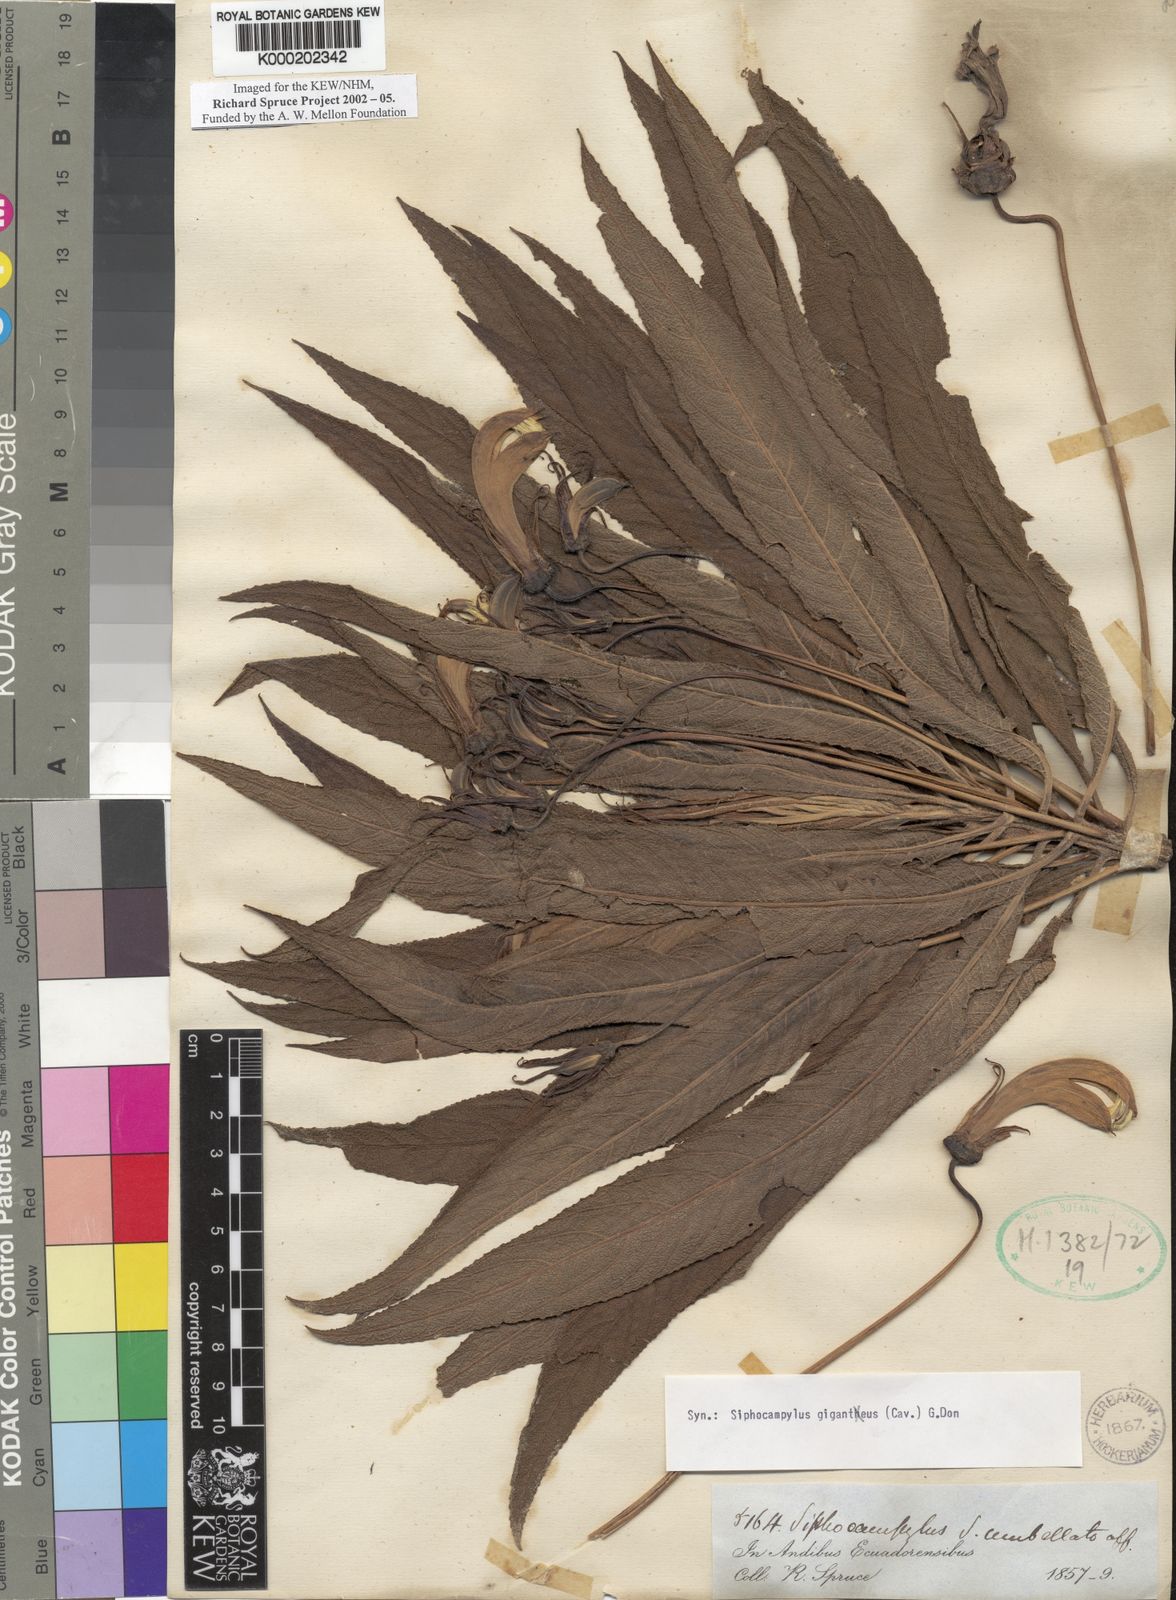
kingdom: Plantae
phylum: Tracheophyta
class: Magnoliopsida
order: Asterales
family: Campanulaceae
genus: Siphocampylus
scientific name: Siphocampylus giganteus
